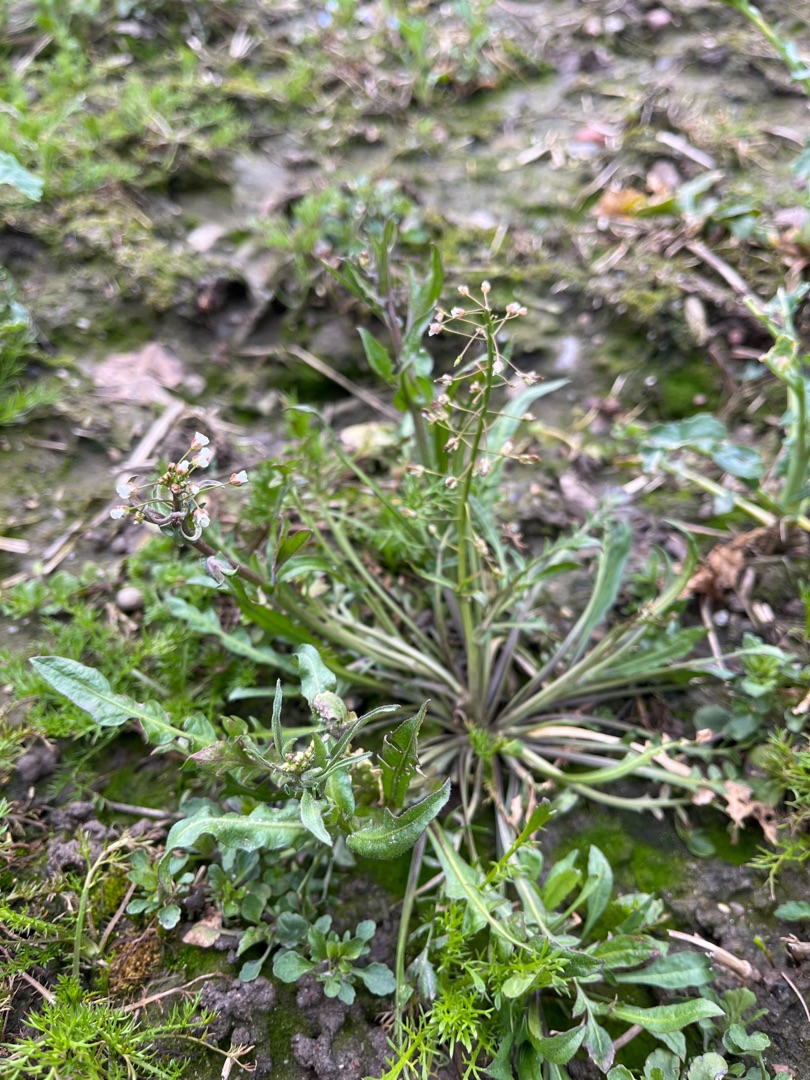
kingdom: Plantae
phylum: Tracheophyta
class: Magnoliopsida
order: Brassicales
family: Brassicaceae
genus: Capsella
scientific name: Capsella bursa-pastoris
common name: Hyrdetaske
